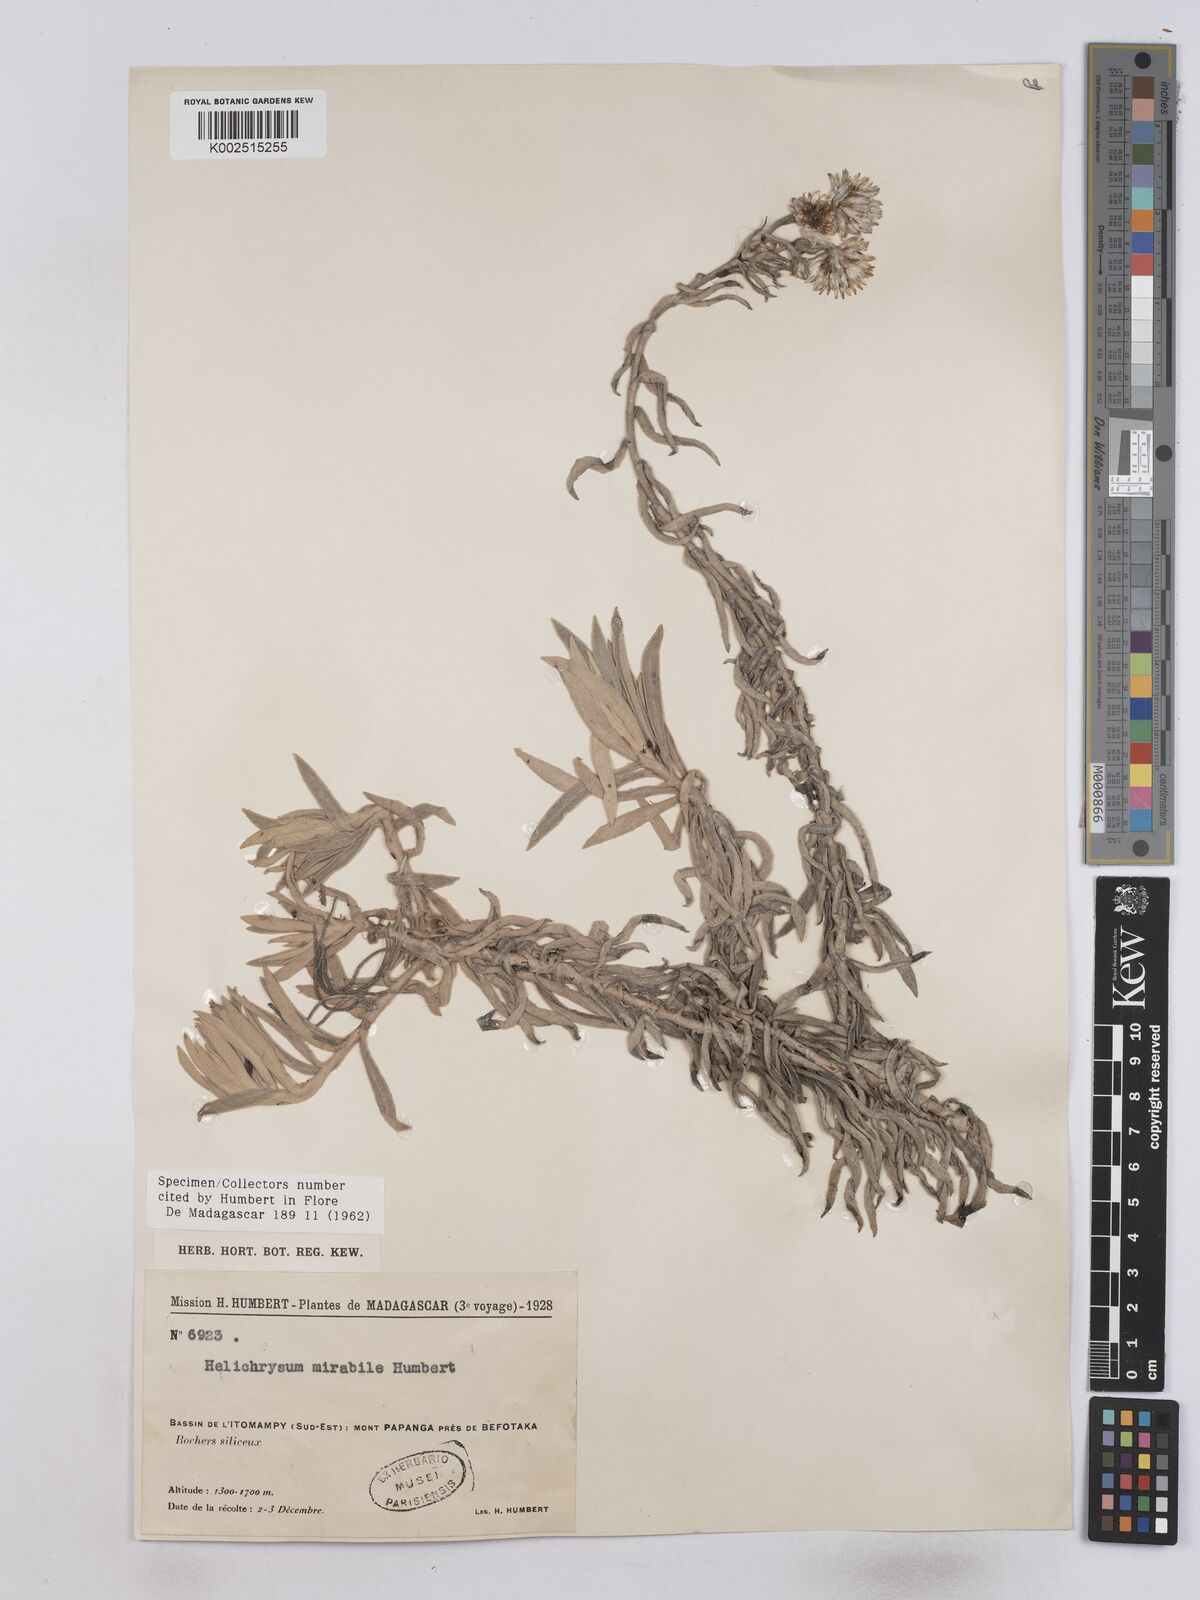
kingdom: Plantae
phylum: Tracheophyta
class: Magnoliopsida
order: Asterales
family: Asteraceae
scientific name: Asteraceae
